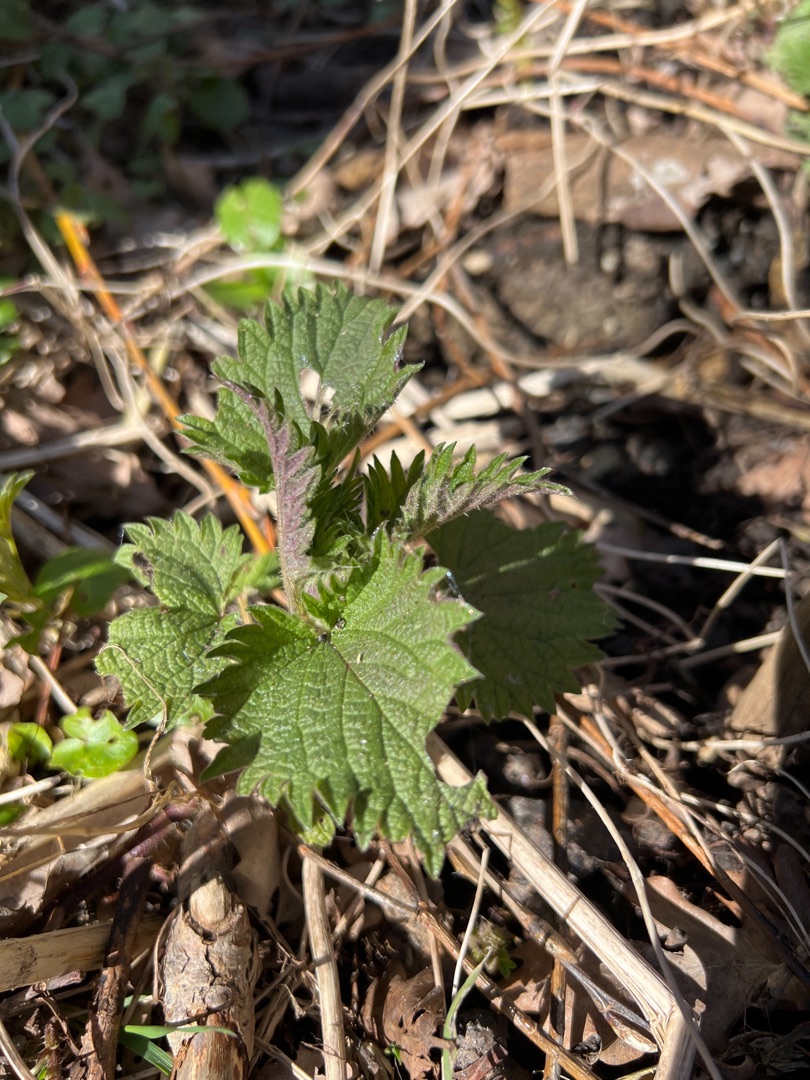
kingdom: Plantae
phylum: Tracheophyta
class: Magnoliopsida
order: Rosales
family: Urticaceae
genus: Urtica
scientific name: Urtica dioica
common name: Stor nælde
